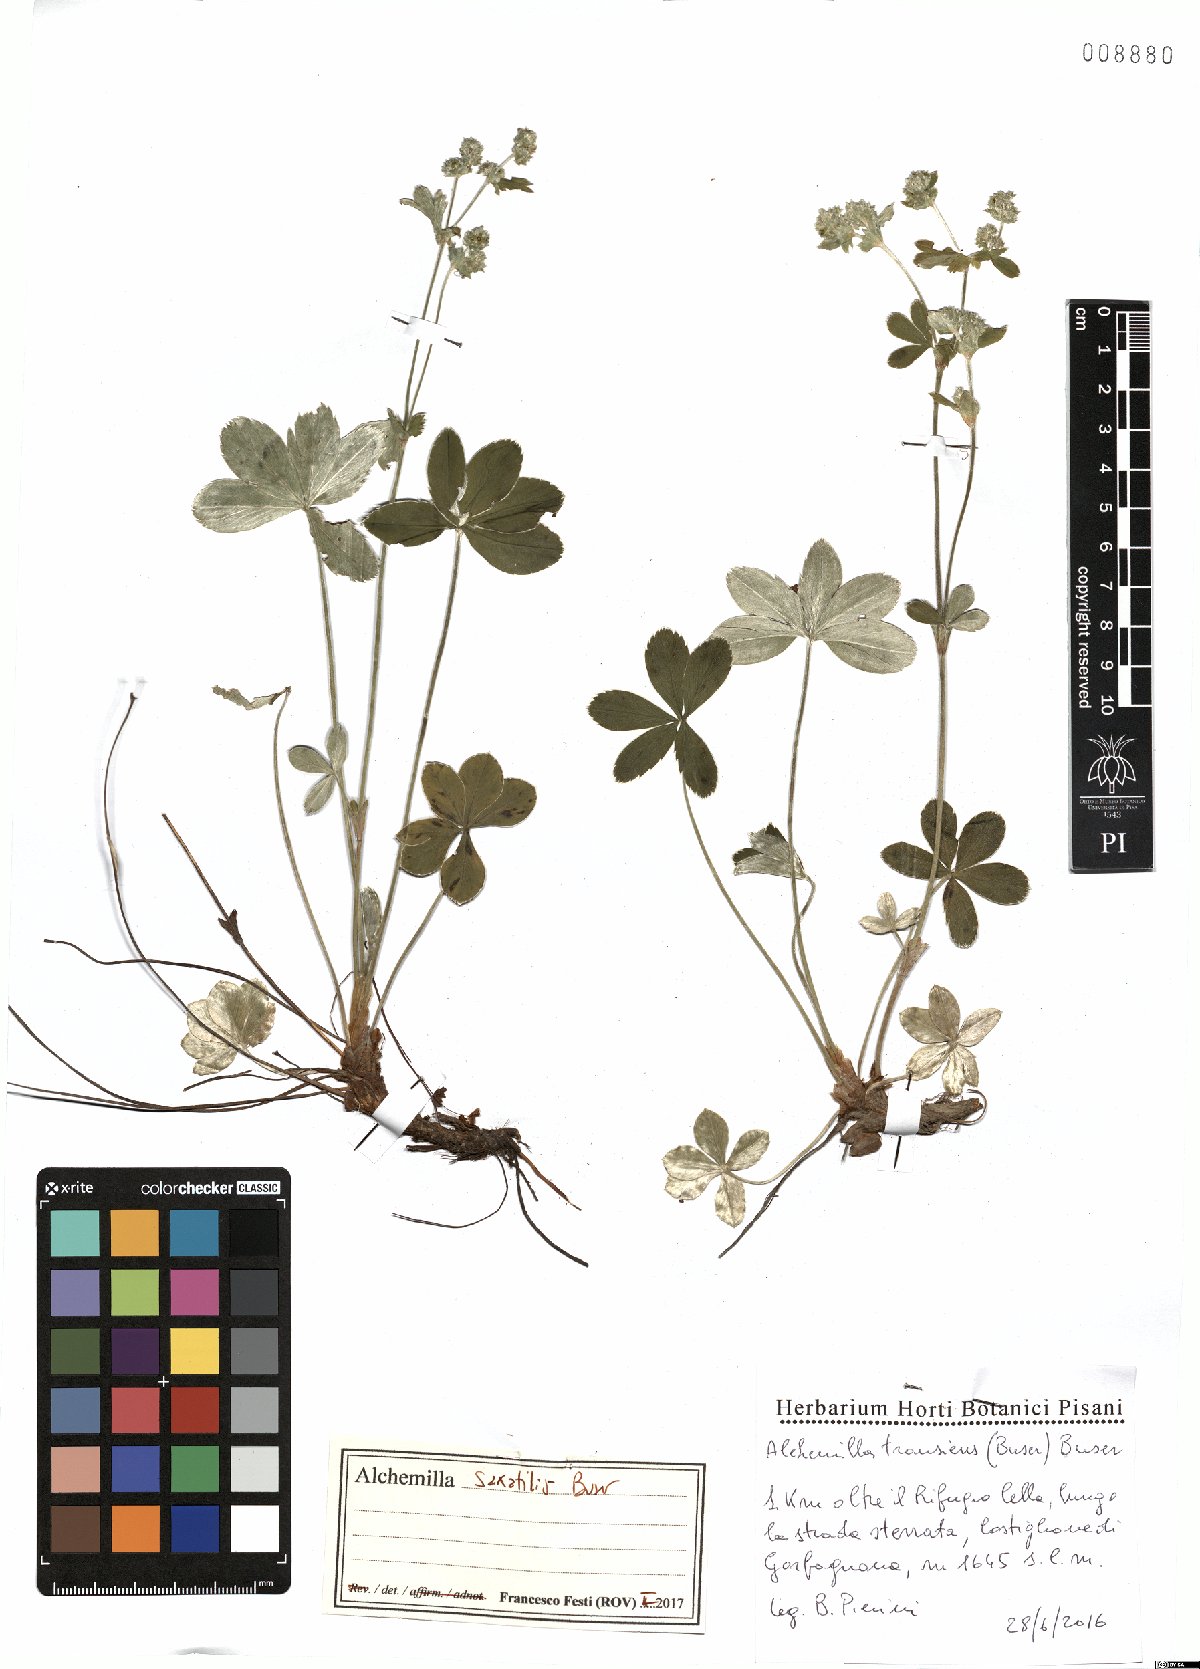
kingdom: Plantae
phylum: Tracheophyta
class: Magnoliopsida
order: Rosales
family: Rosaceae
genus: Alchemilla
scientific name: Alchemilla saxatilis
